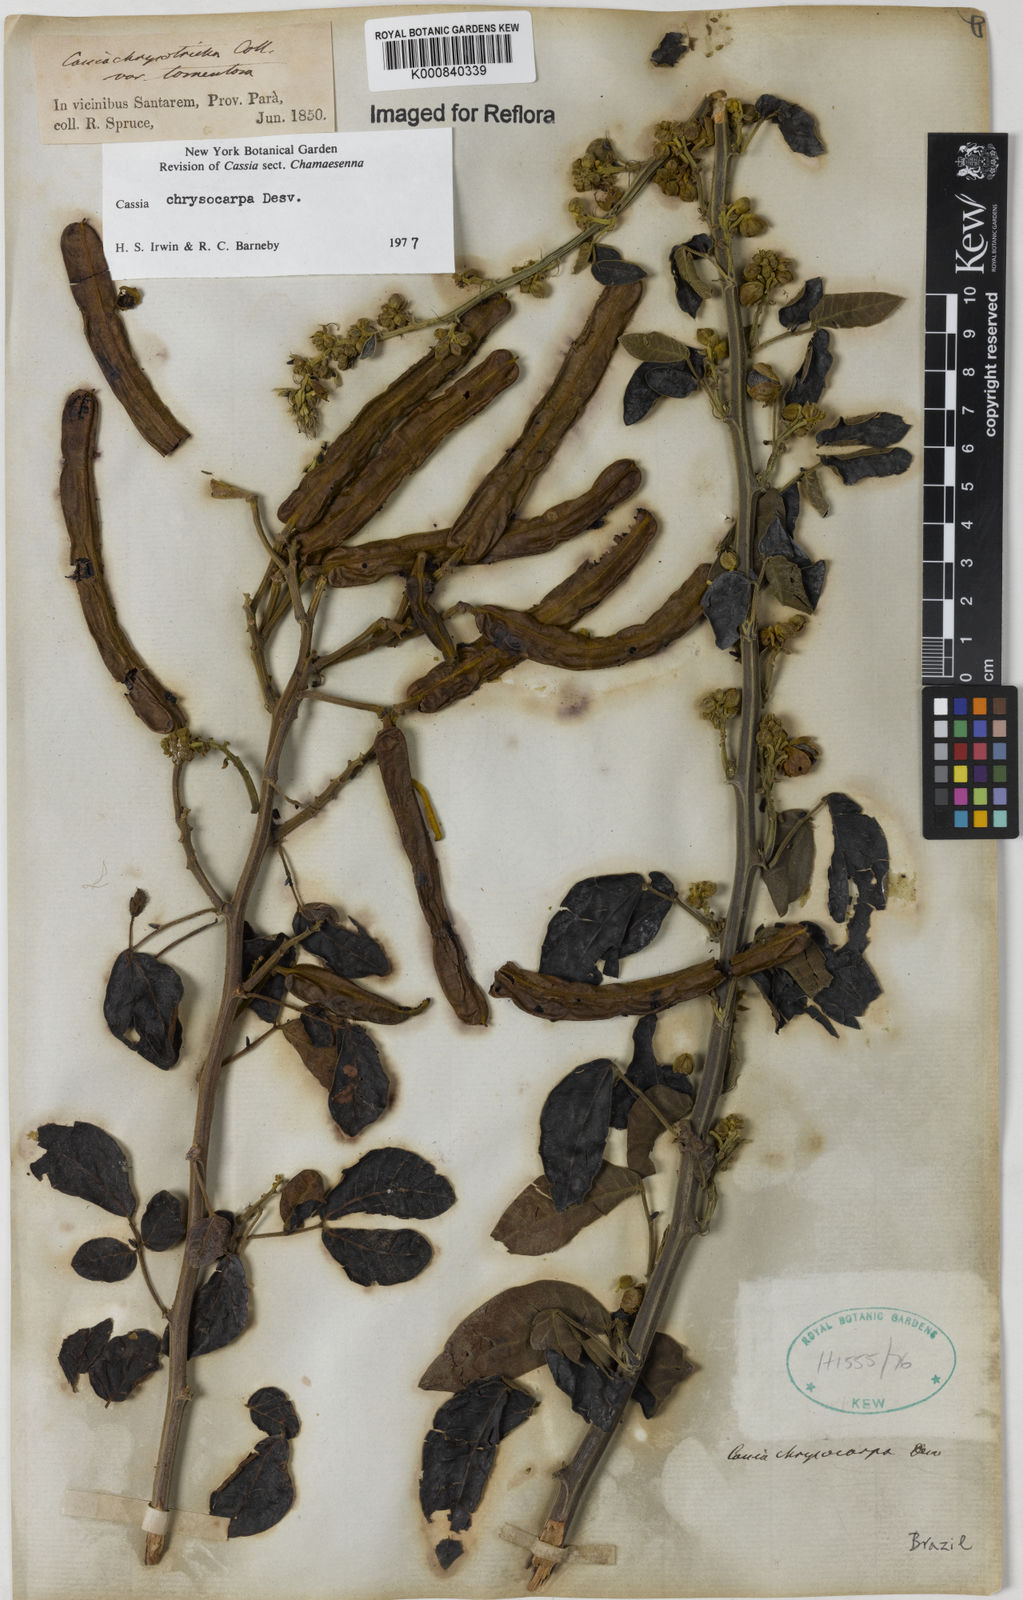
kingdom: Plantae
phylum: Tracheophyta
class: Magnoliopsida
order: Fabales
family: Fabaceae
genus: Senna
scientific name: Senna chrysocarpa
